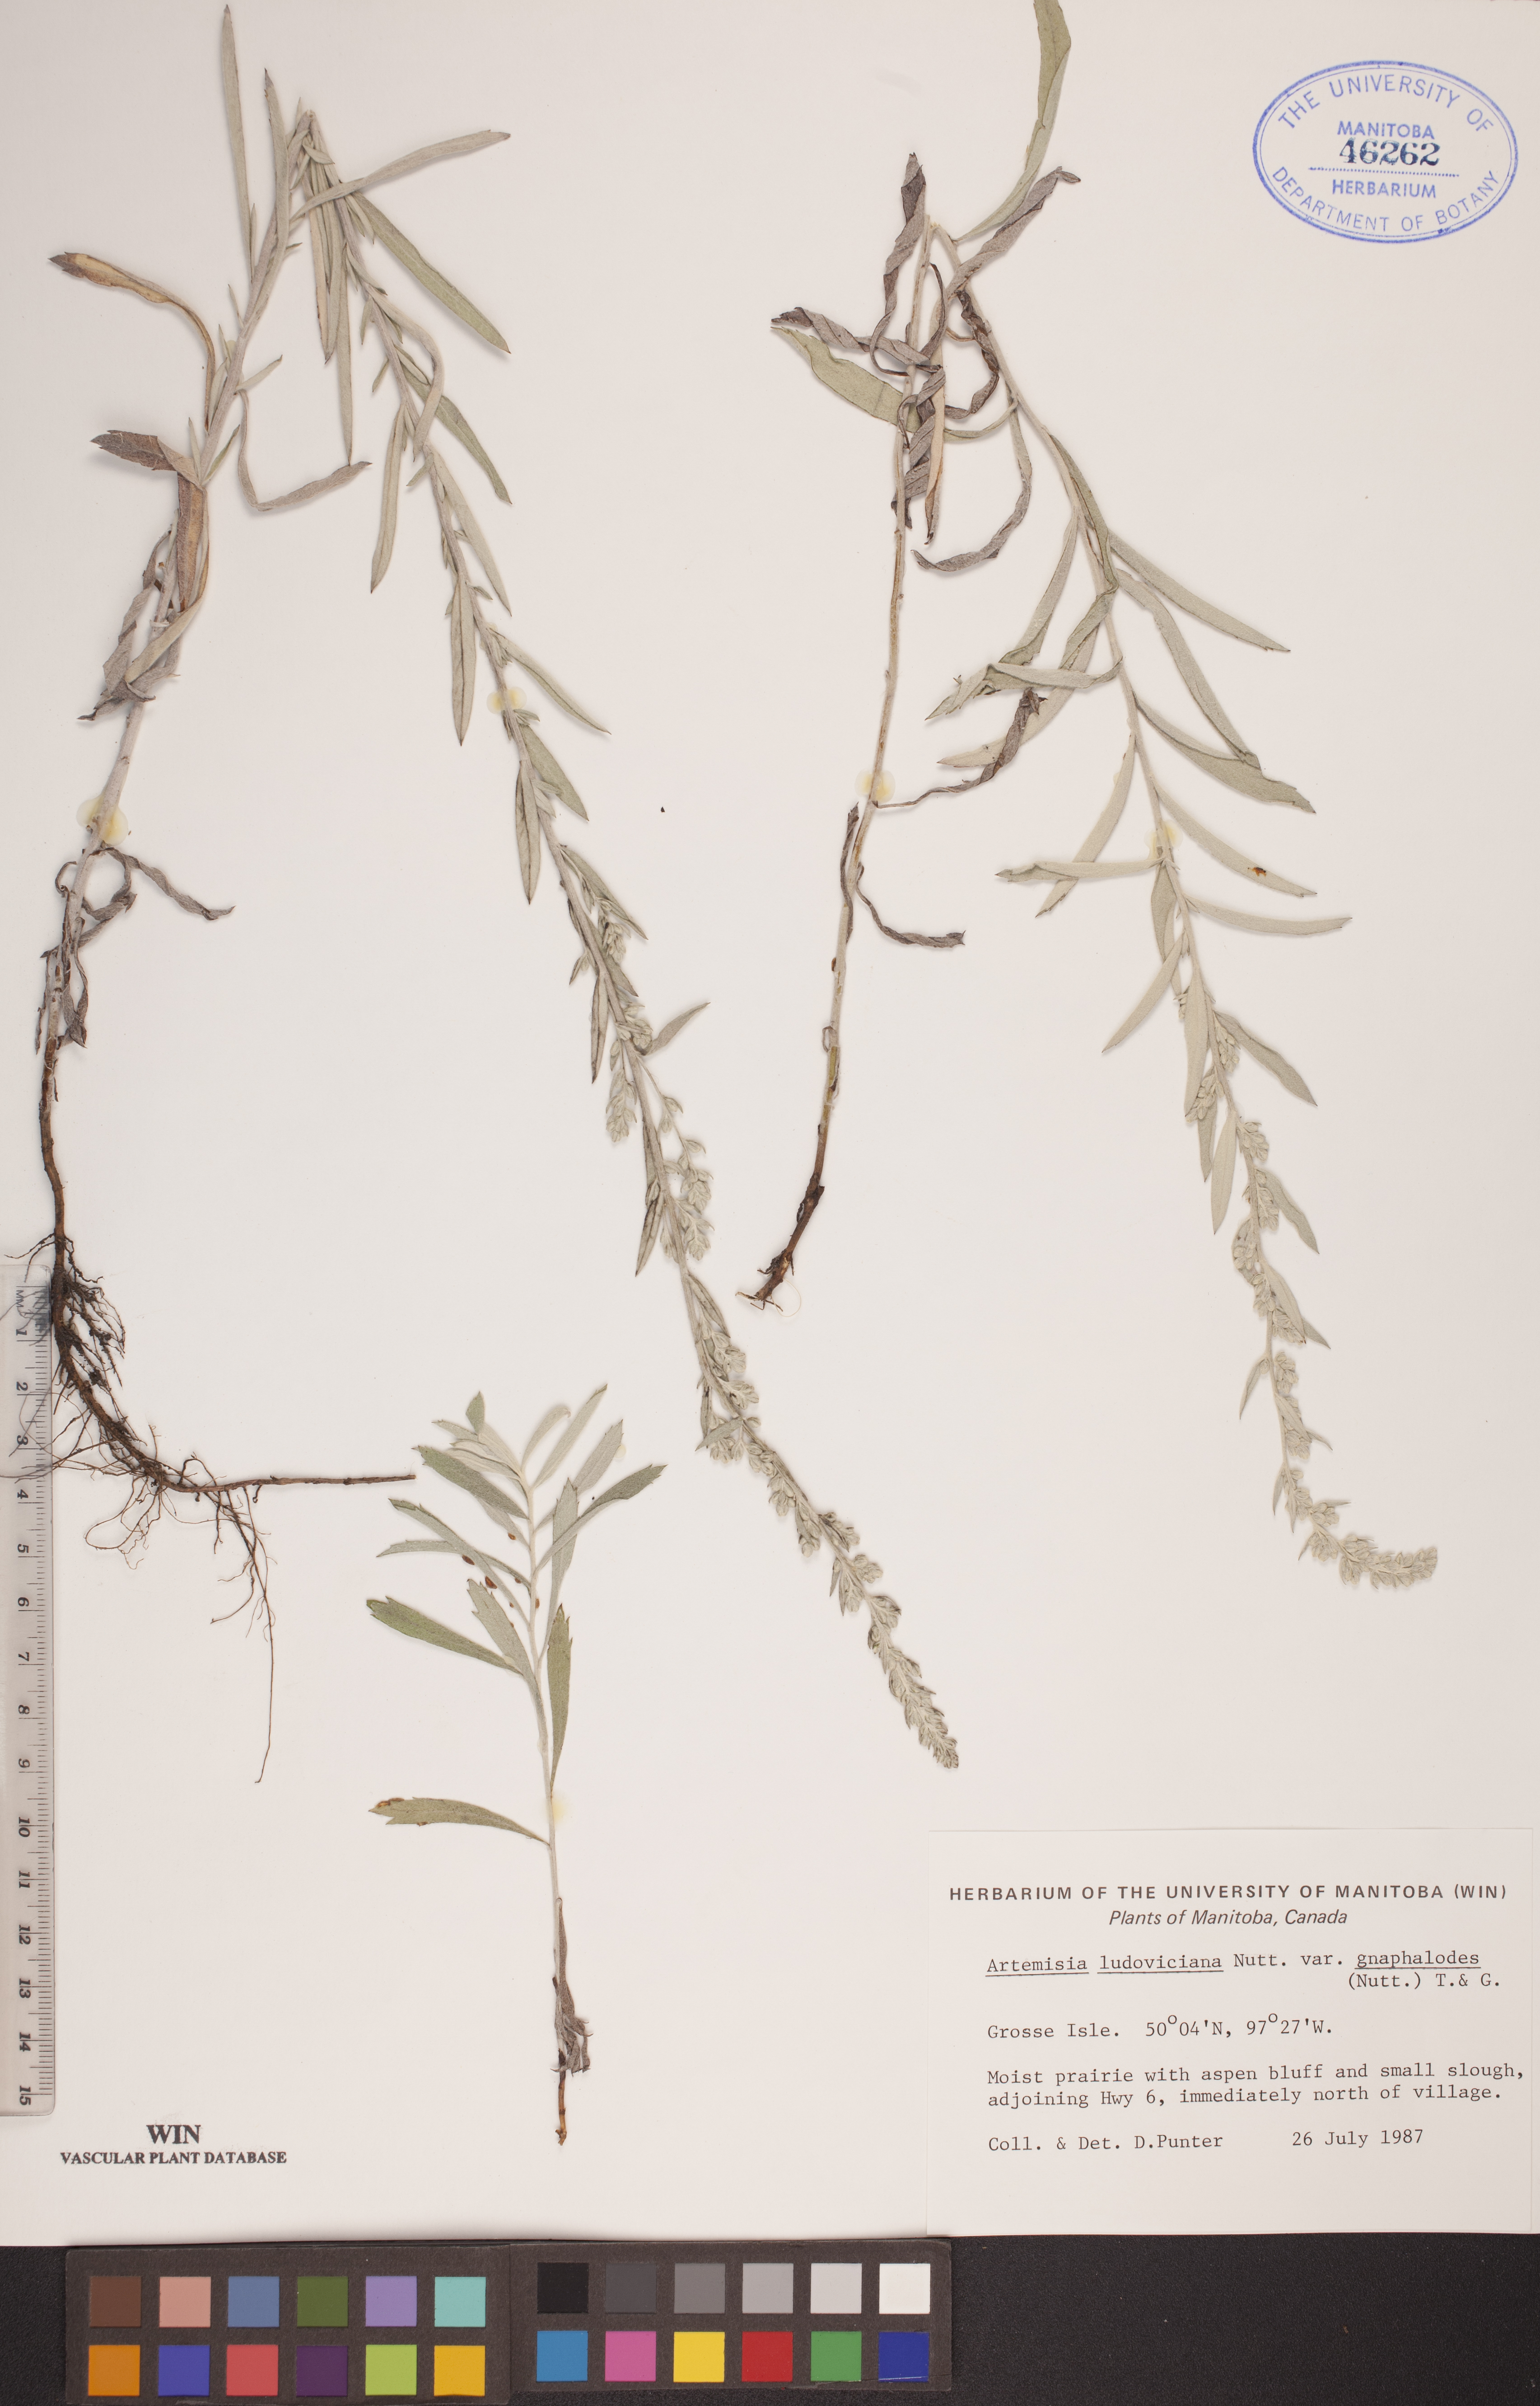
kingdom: Plantae
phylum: Tracheophyta
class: Magnoliopsida
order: Asterales
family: Asteraceae
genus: Artemisia
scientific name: Artemisia ludoviciana
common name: Western mugwort
